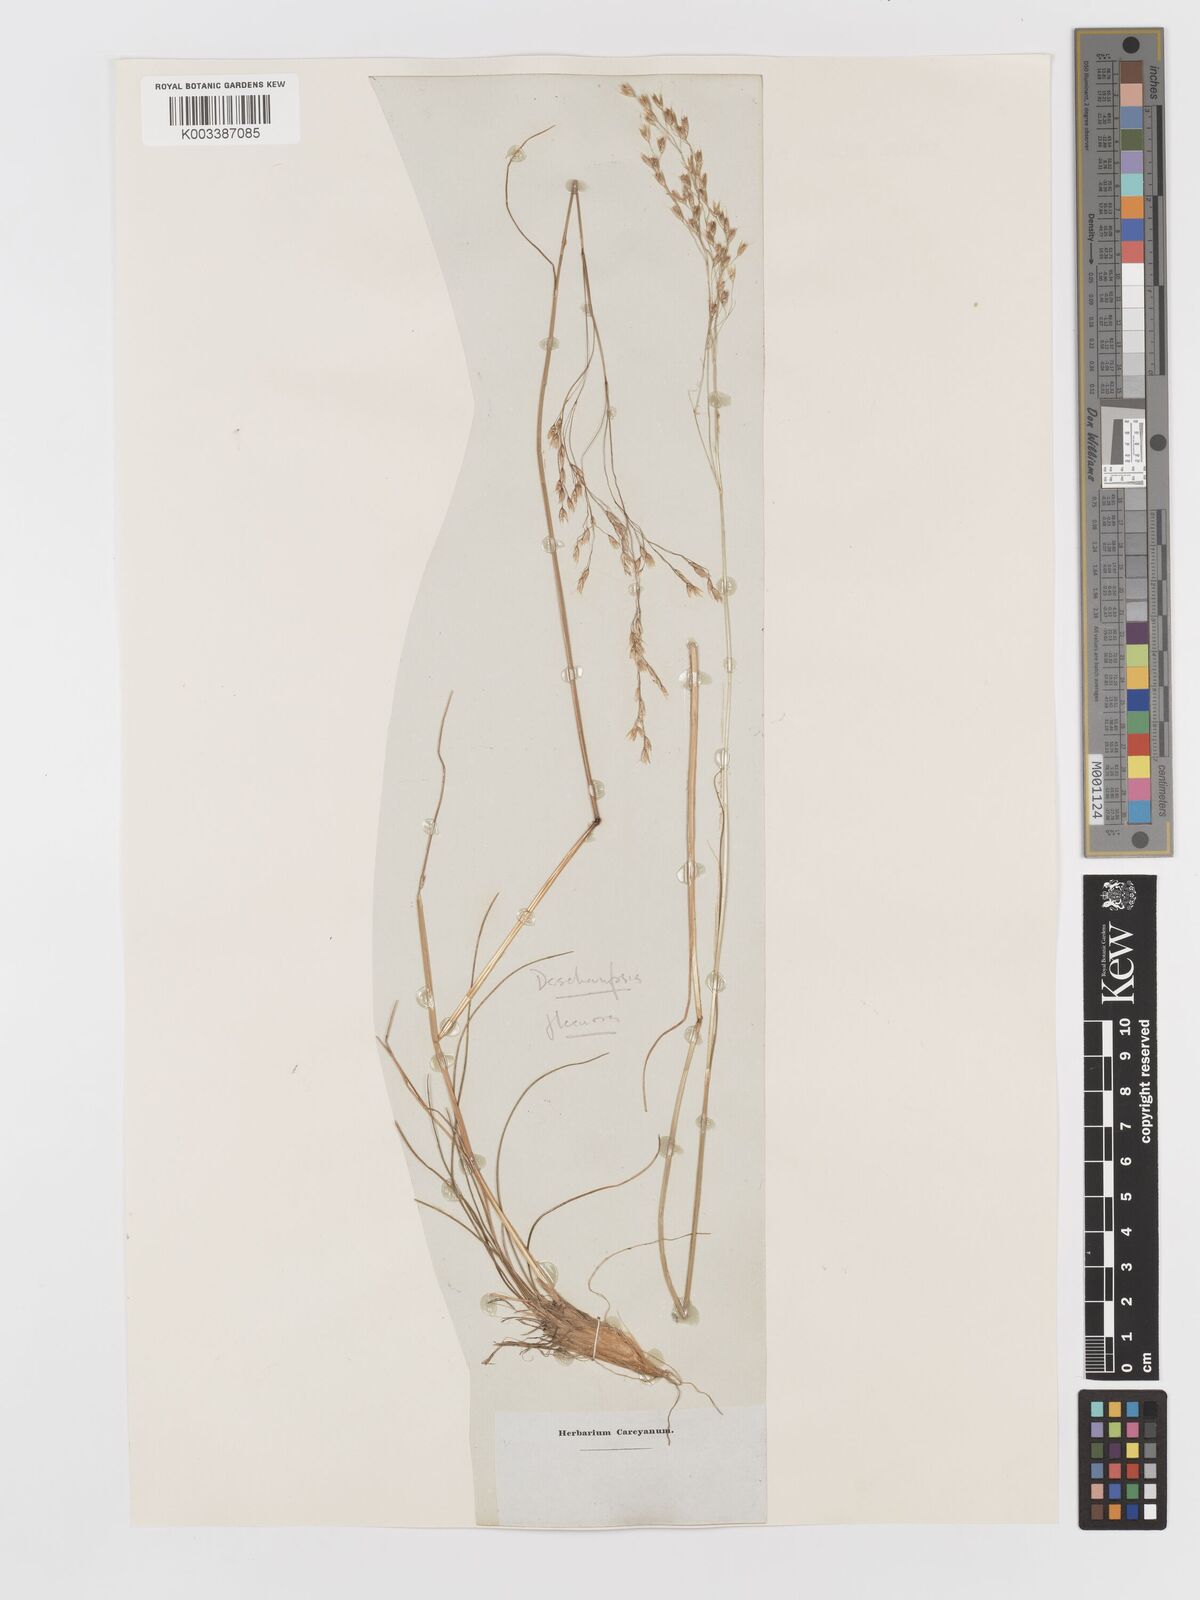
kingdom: Plantae
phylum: Tracheophyta
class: Liliopsida
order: Poales
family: Poaceae
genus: Avenella
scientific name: Avenella flexuosa
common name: Wavy hairgrass
